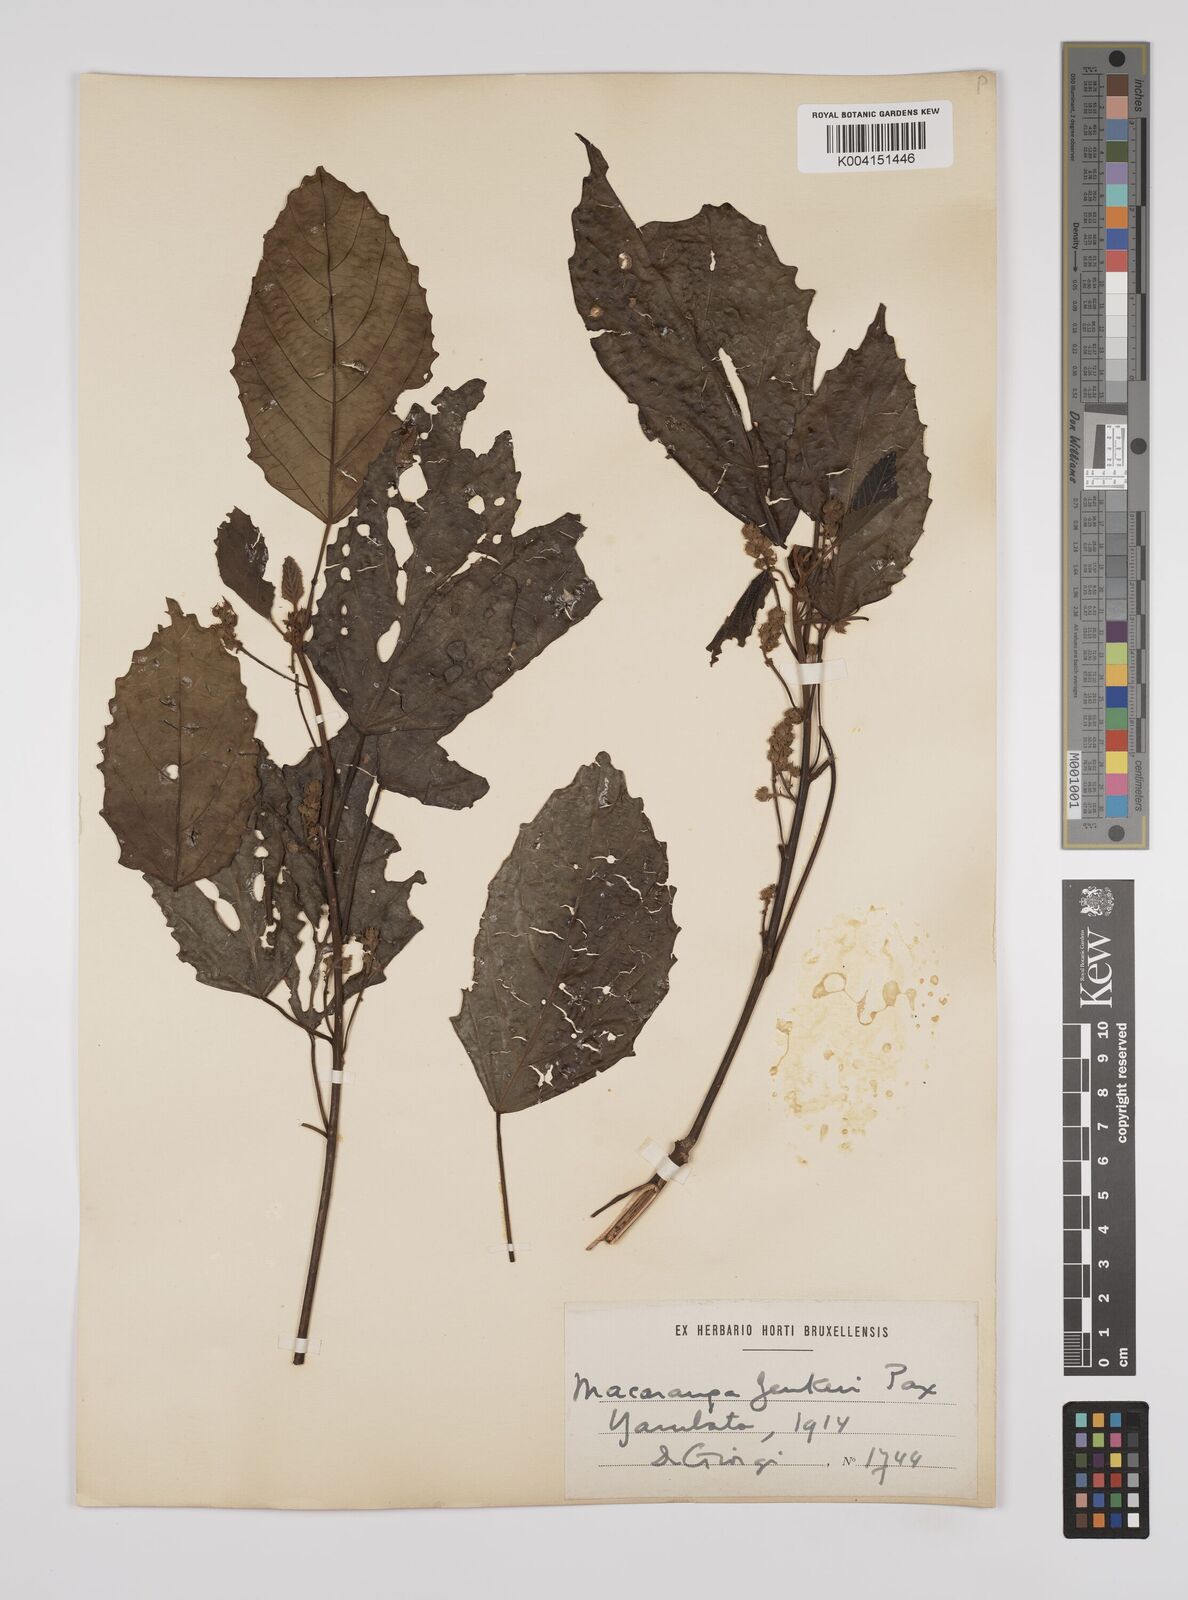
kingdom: Plantae
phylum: Tracheophyta
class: Magnoliopsida
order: Malpighiales
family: Euphorbiaceae
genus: Macaranga
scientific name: Macaranga monandra
